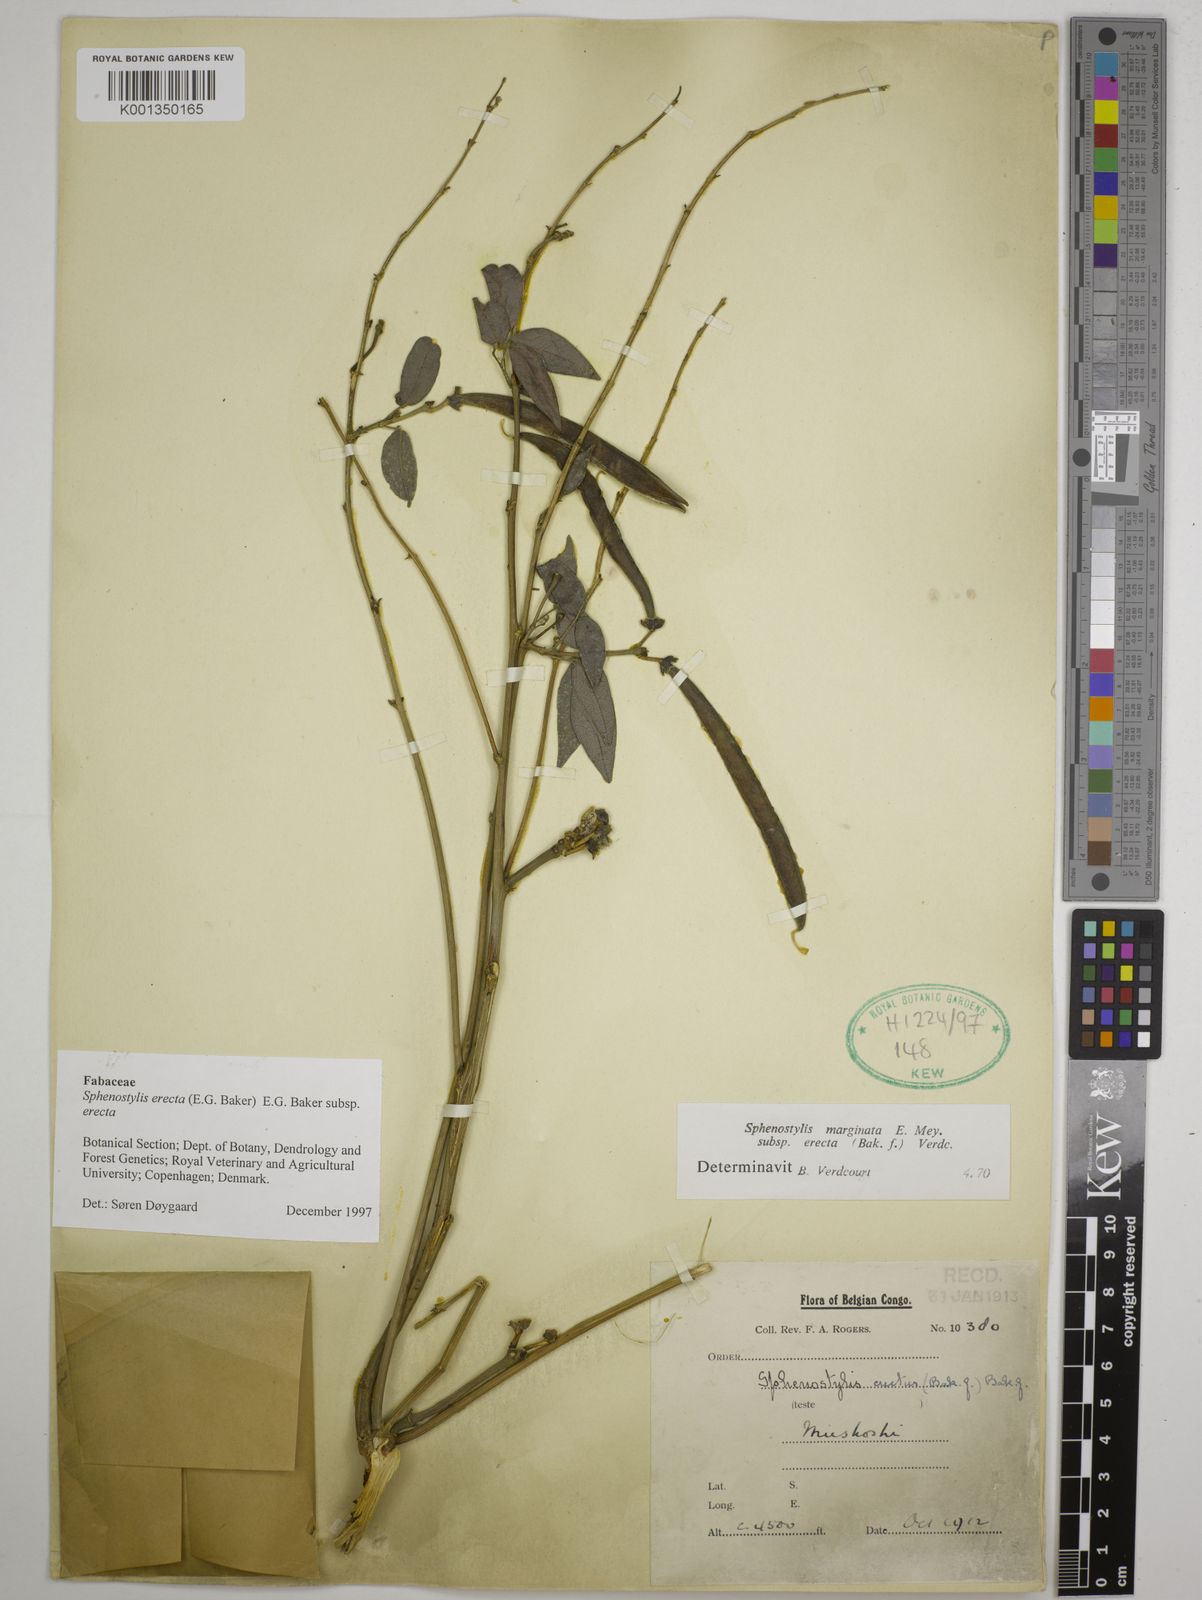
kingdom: Plantae
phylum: Tracheophyta
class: Magnoliopsida
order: Fabales
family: Fabaceae
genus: Sphenostylis
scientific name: Sphenostylis erecta
